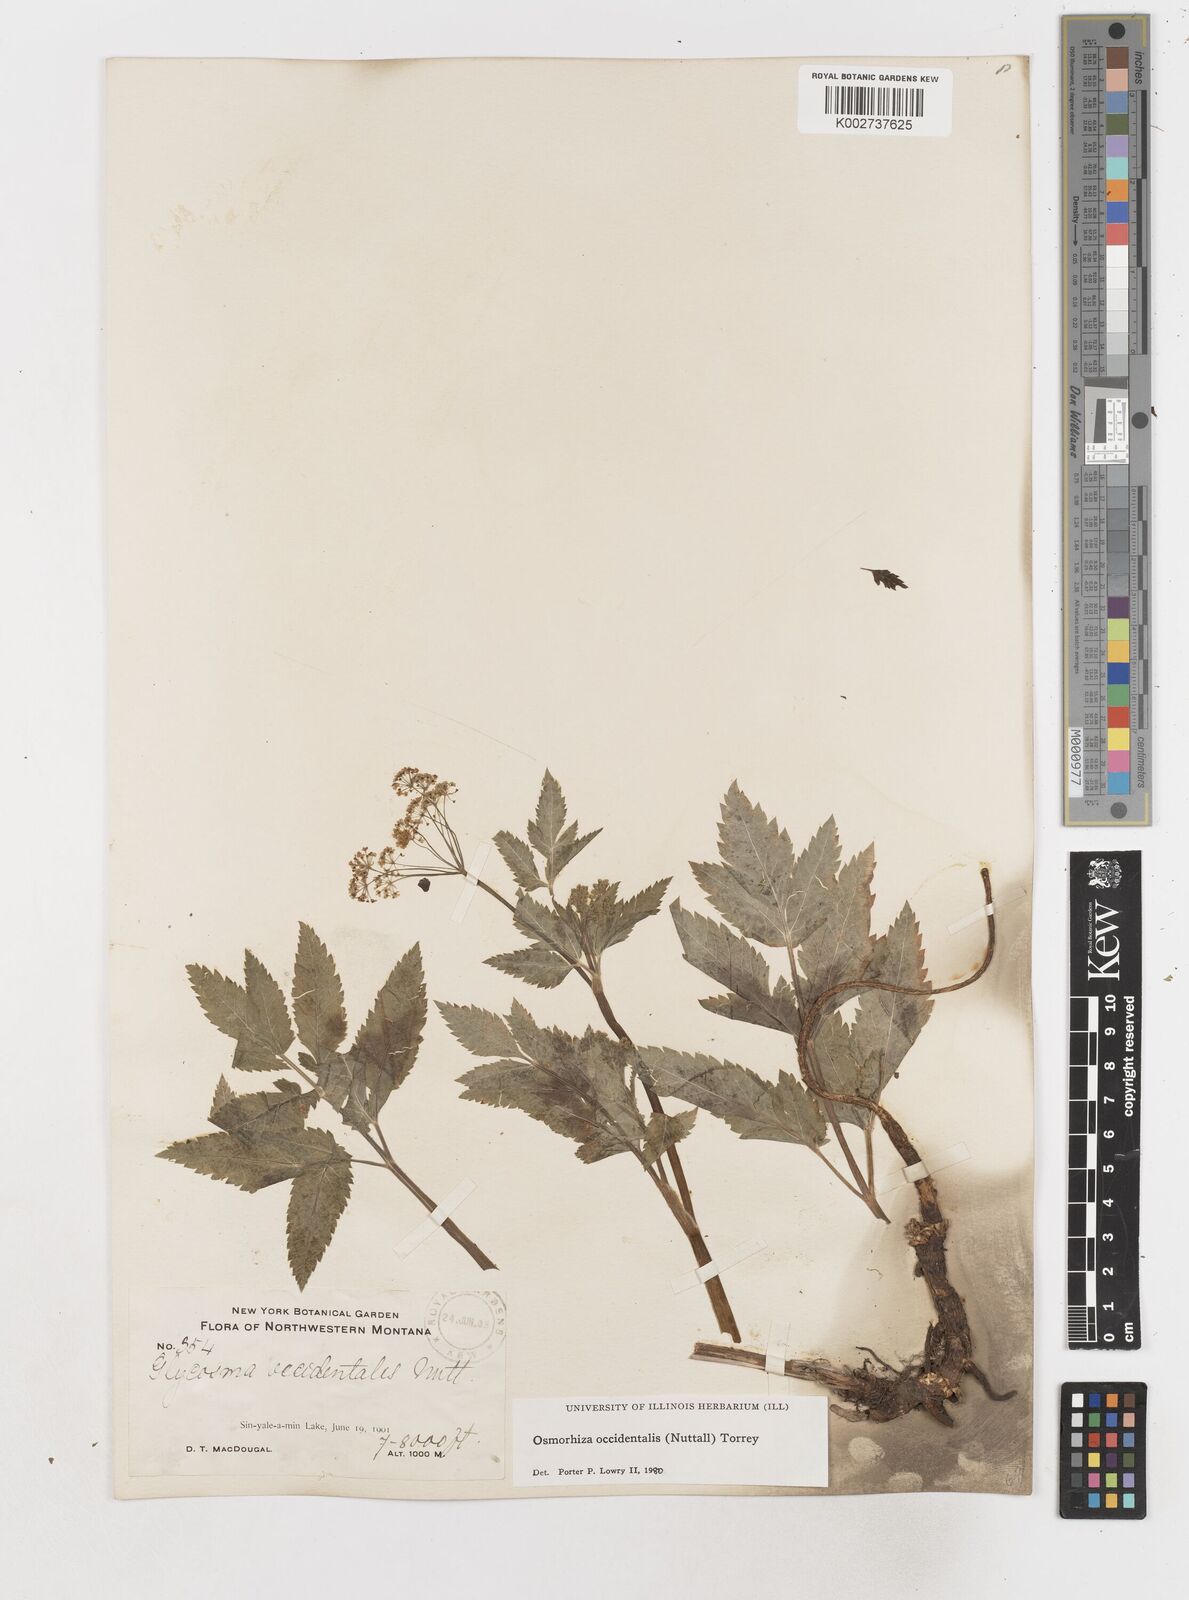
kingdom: Plantae
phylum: Tracheophyta
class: Magnoliopsida
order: Apiales
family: Apiaceae
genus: Osmorhiza
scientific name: Osmorhiza occidentalis
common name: Western sweet cicely
